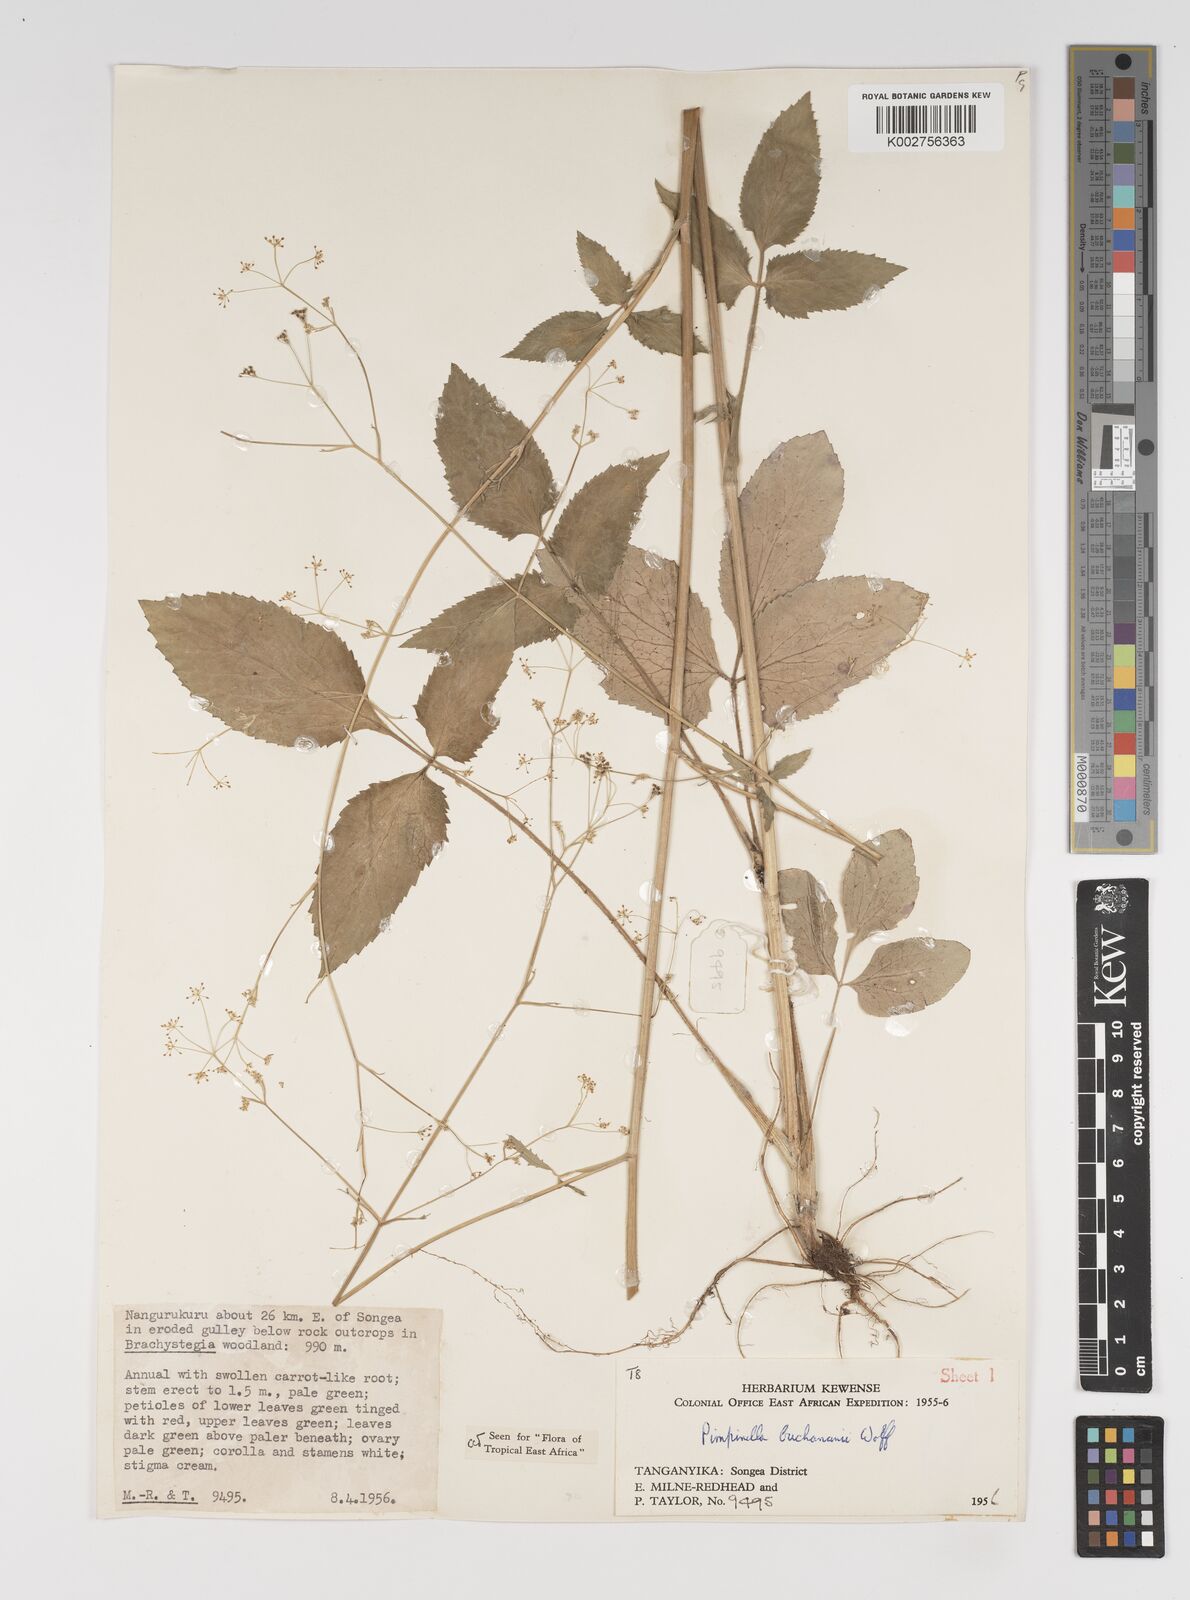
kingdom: Plantae
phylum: Tracheophyta
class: Magnoliopsida
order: Apiales
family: Apiaceae
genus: Pimpinella
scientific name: Pimpinella buchananii
